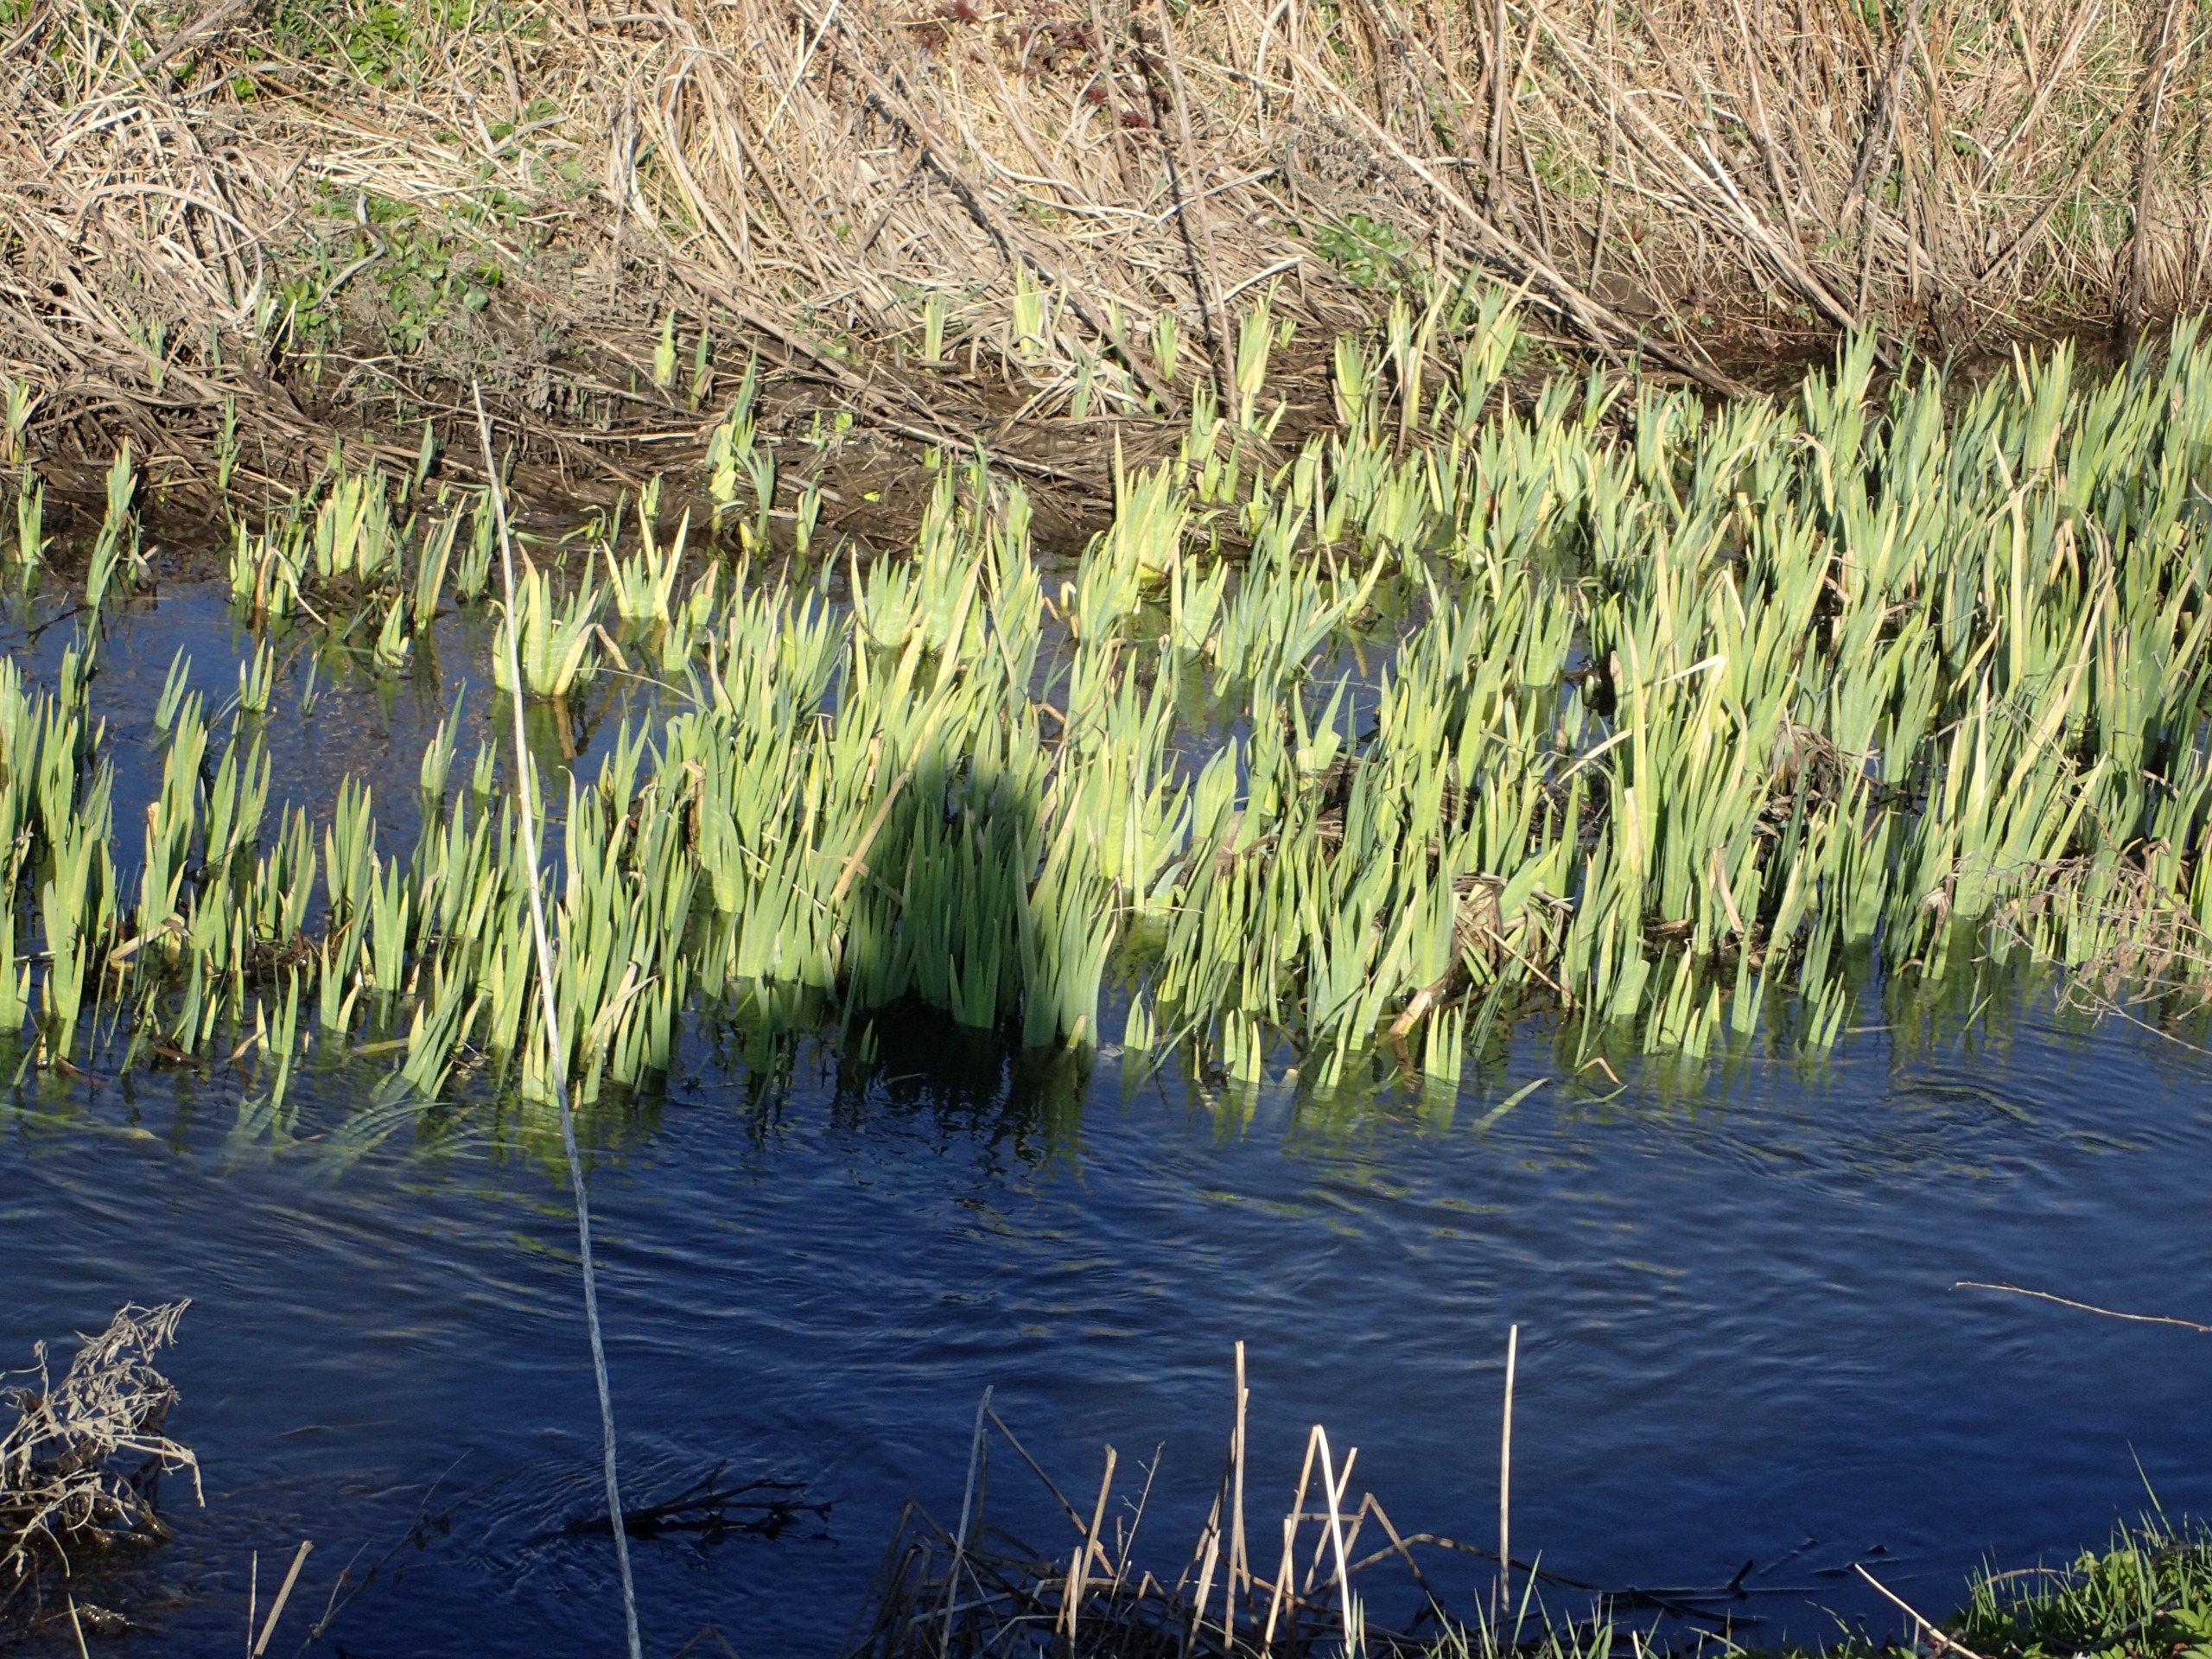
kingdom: Plantae
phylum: Tracheophyta
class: Liliopsida
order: Asparagales
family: Iridaceae
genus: Iris
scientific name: Iris pseudacorus
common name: Gul iris
